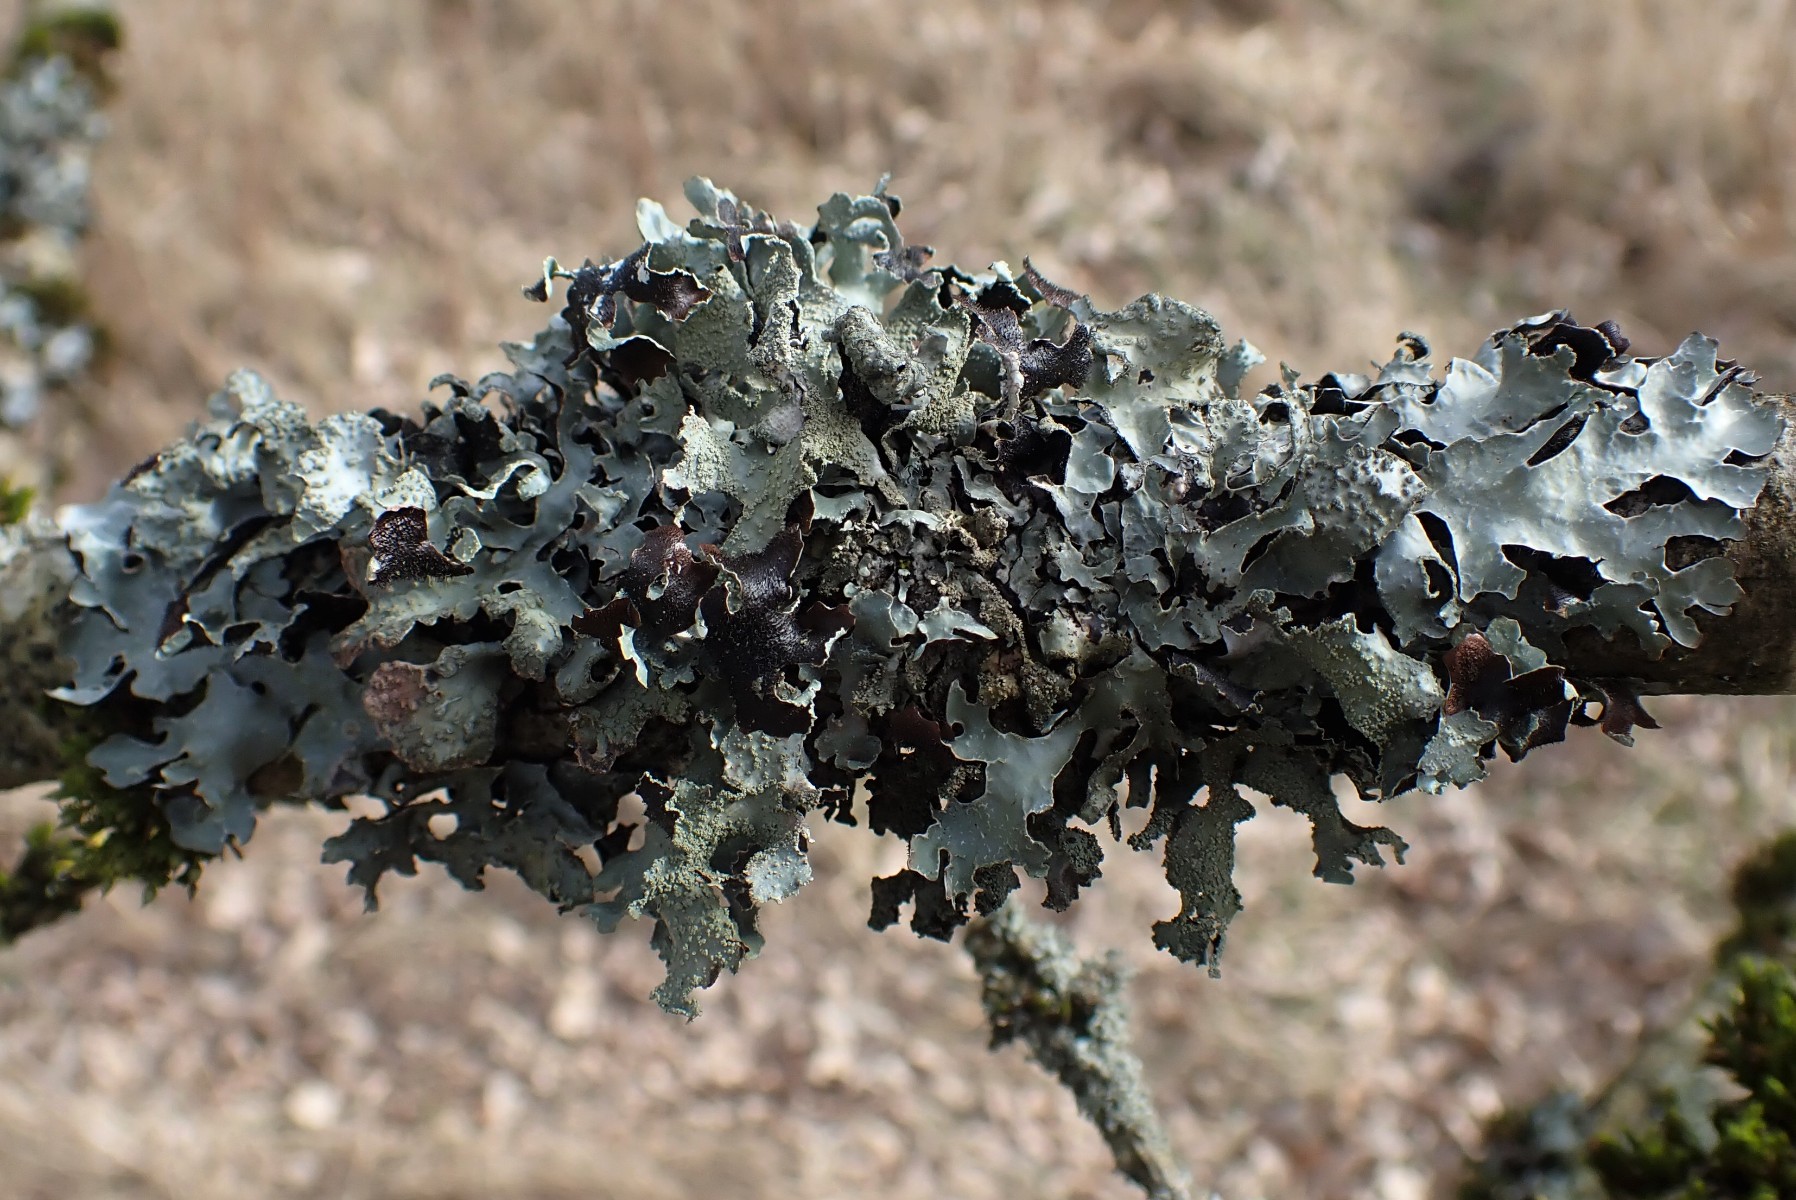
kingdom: Fungi
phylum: Ascomycota
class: Lecanoromycetes
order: Lecanorales
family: Parmeliaceae
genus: Parmelia
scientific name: Parmelia submontana
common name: langlobet skållav
